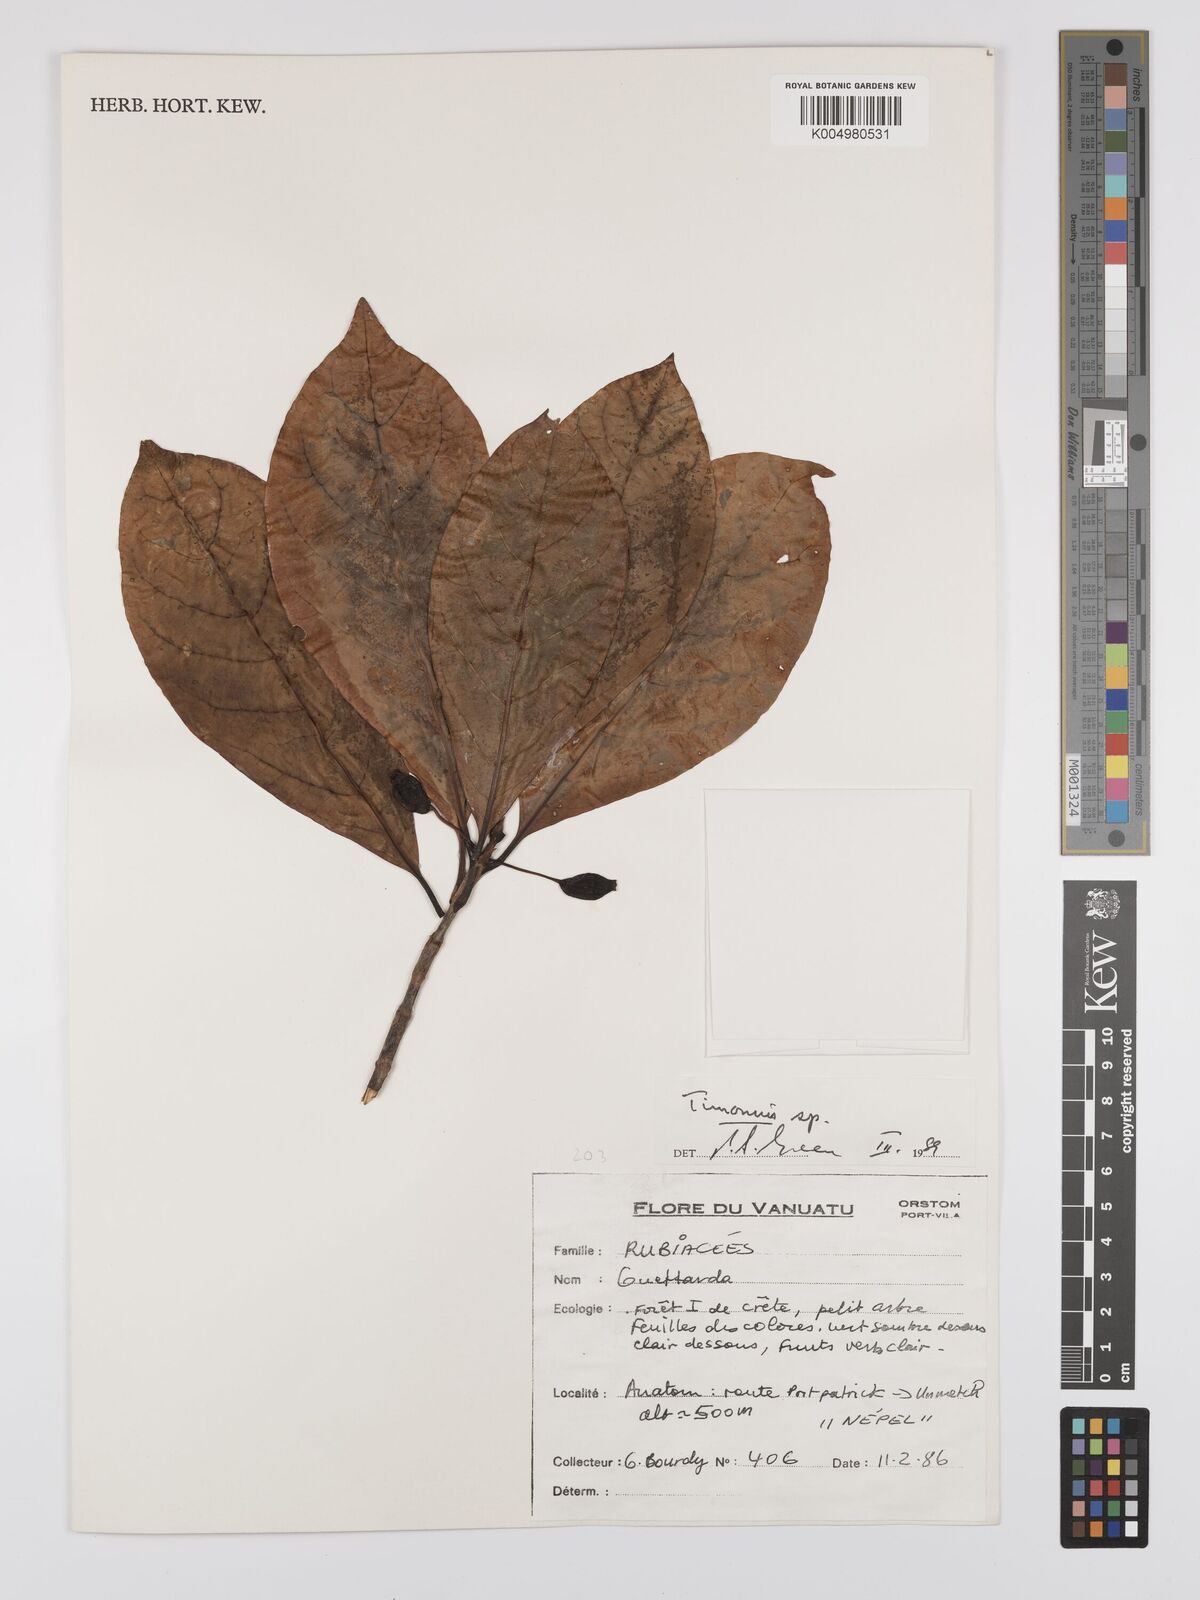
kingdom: Plantae
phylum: Tracheophyta
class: Magnoliopsida
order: Gentianales
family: Rubiaceae
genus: Timonius
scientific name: Timonius
